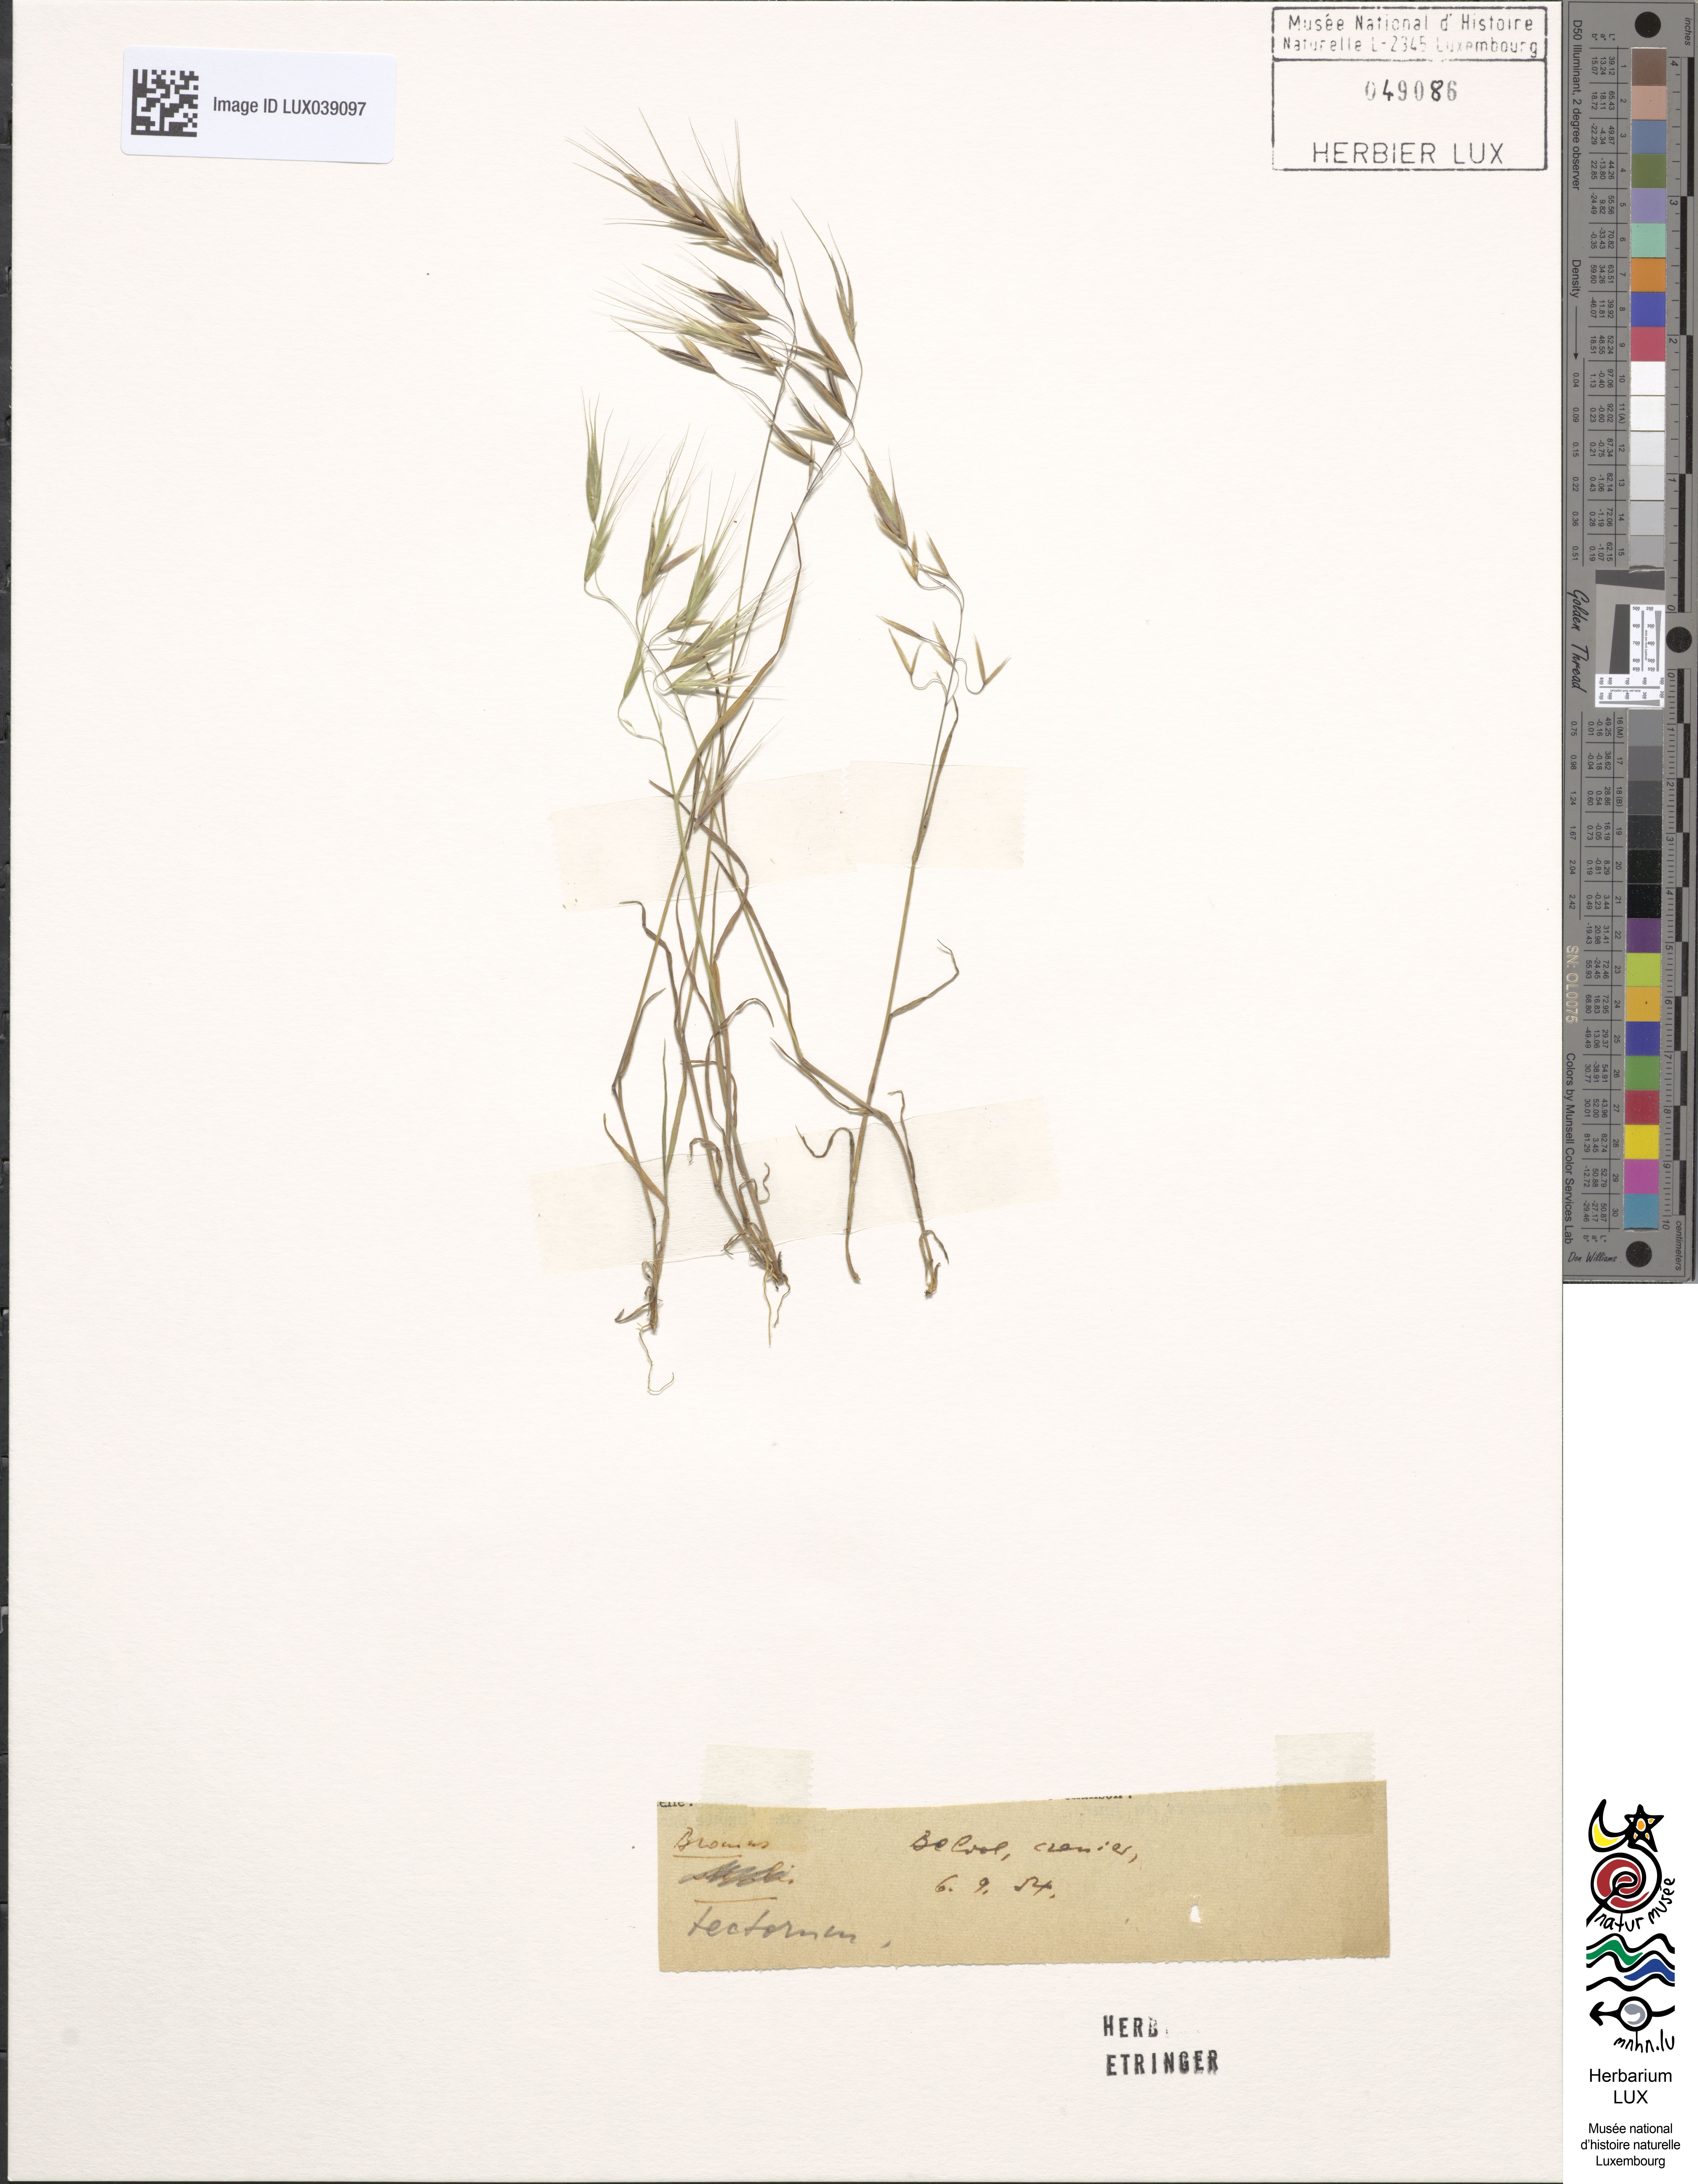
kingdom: Plantae
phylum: Tracheophyta
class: Liliopsida
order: Poales
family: Poaceae
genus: Bromus
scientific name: Bromus tectorum
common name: Cheatgrass
